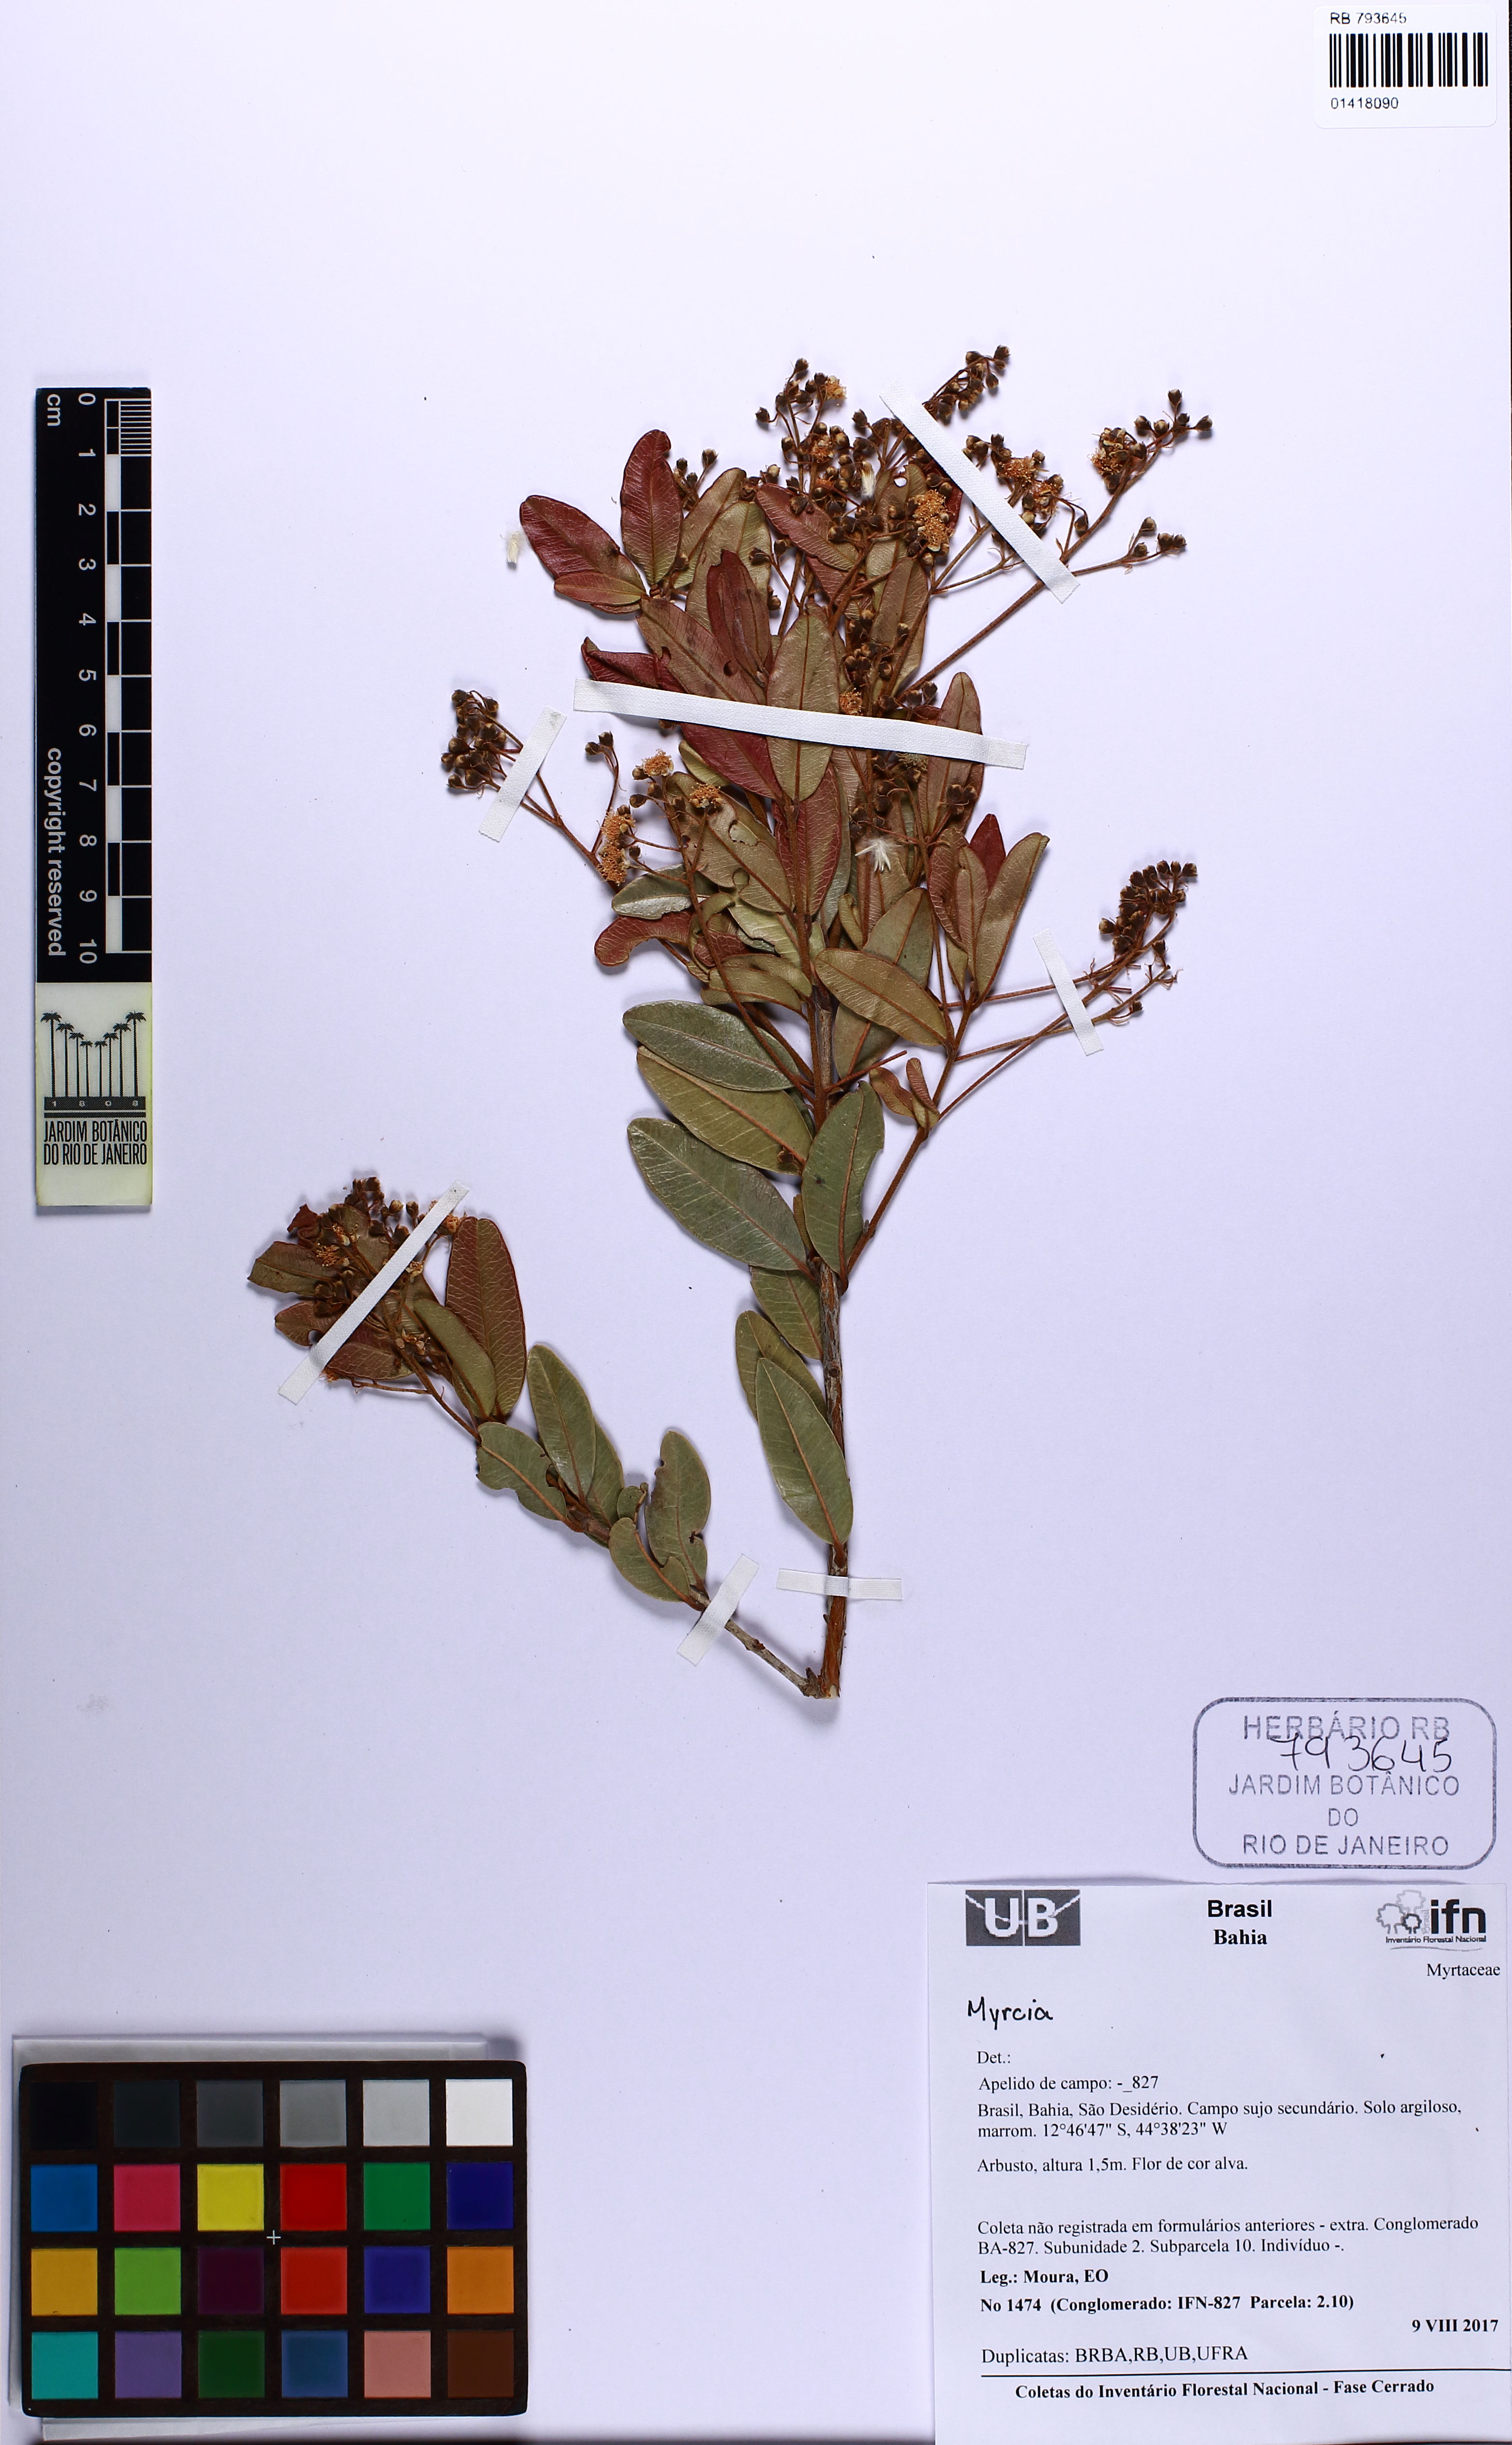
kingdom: Plantae
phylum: Tracheophyta
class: Magnoliopsida
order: Myrtales
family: Myrtaceae
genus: Myrcia
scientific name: Myrcia
